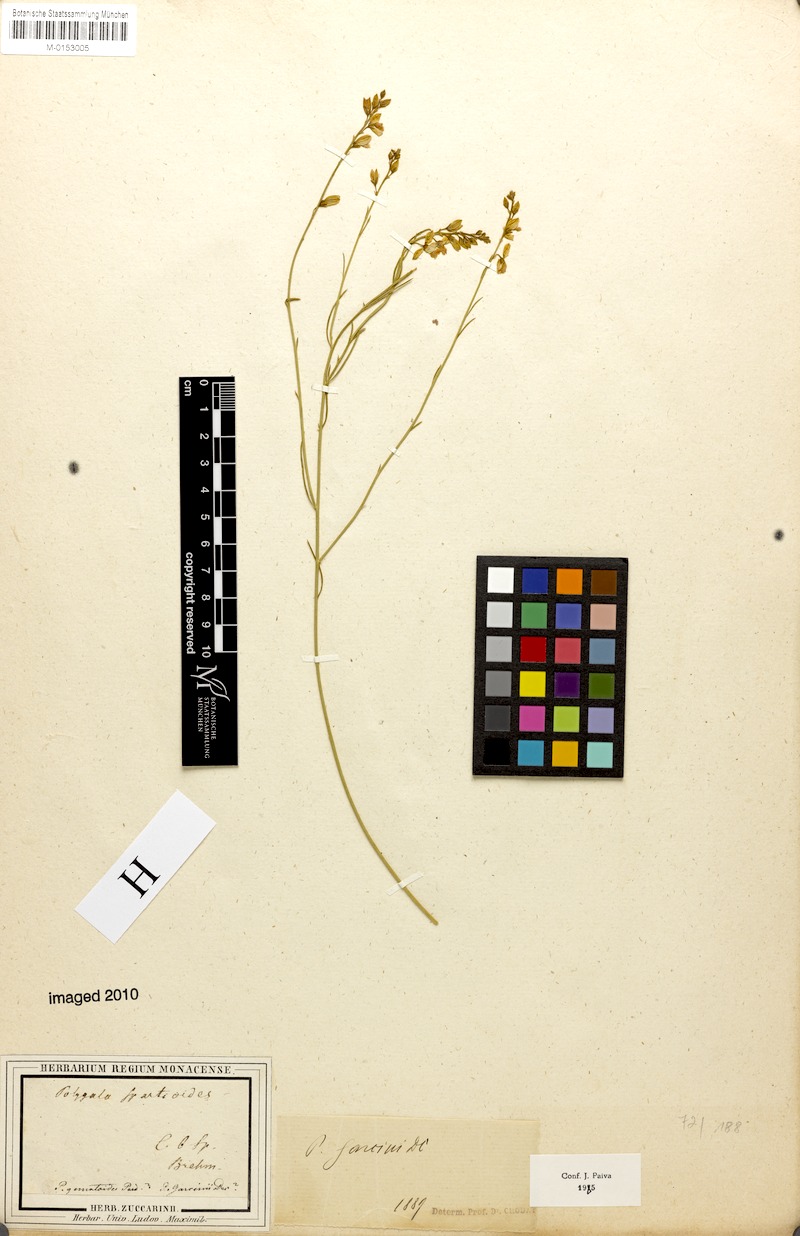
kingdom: Plantae
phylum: Tracheophyta
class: Magnoliopsida
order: Fabales
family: Polygalaceae
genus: Polygala
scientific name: Polygala garcini
